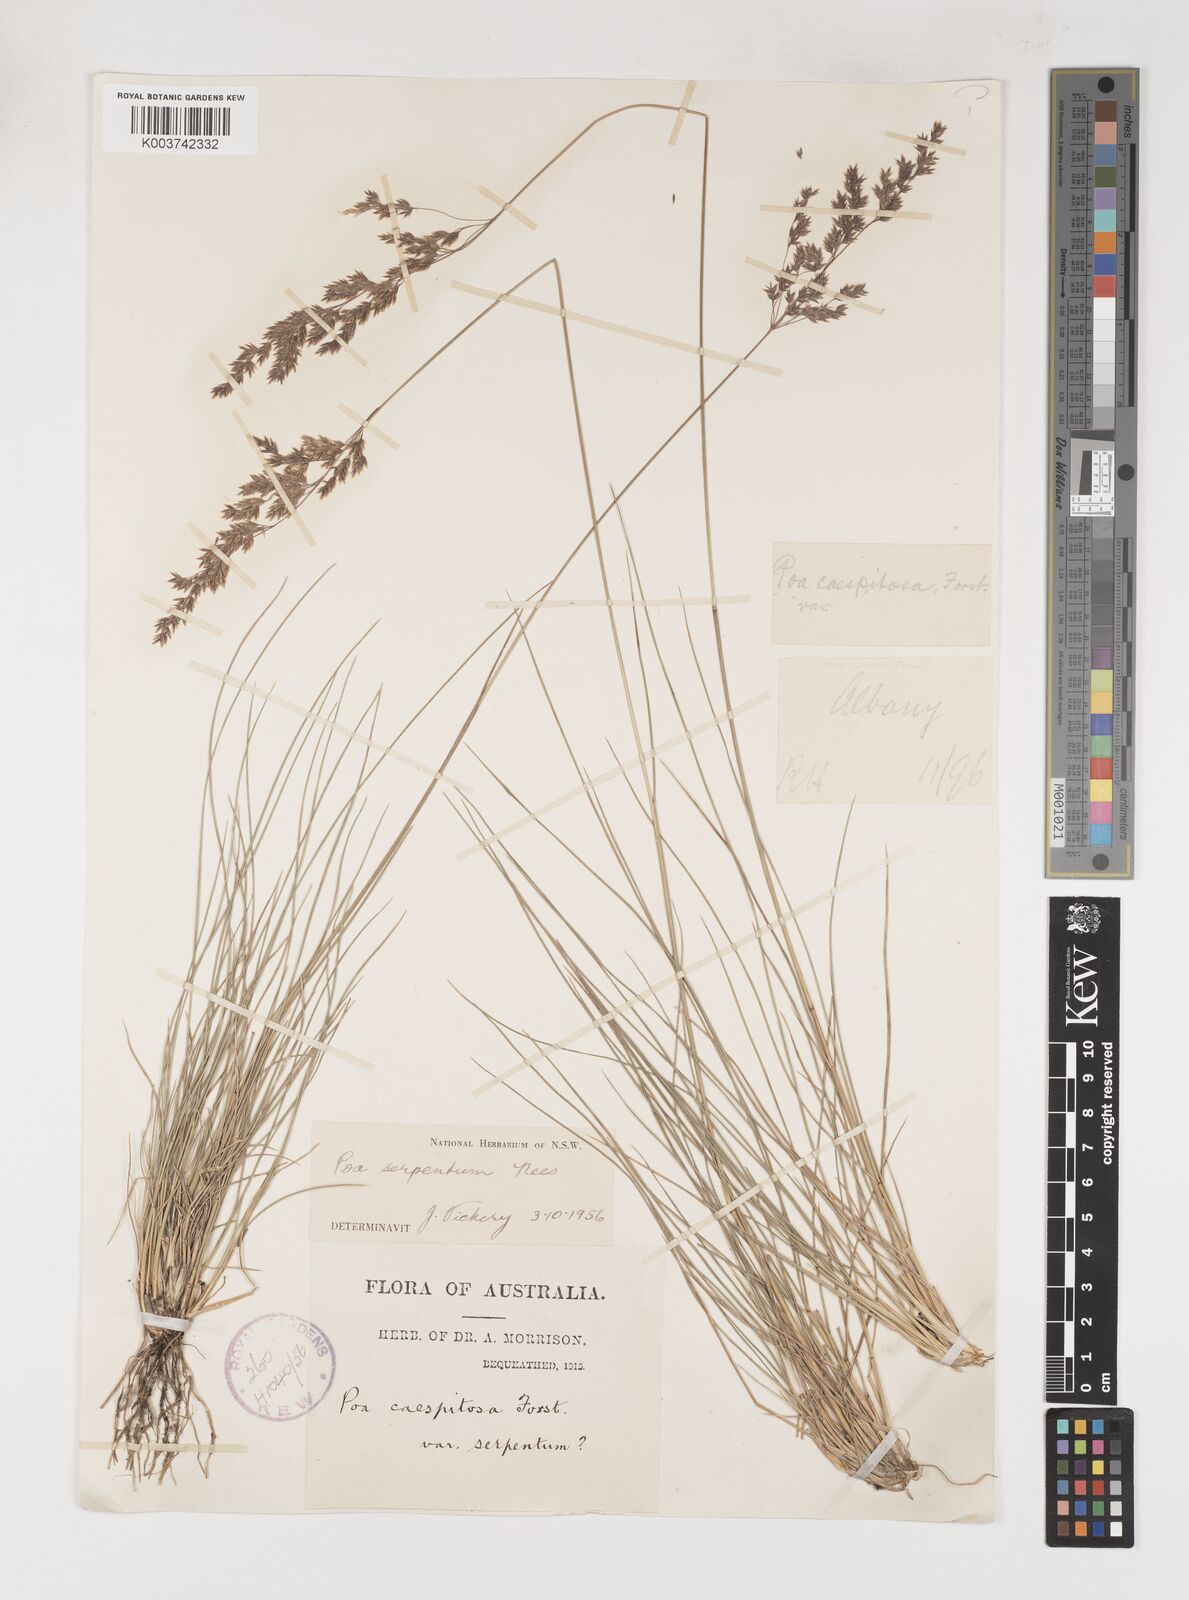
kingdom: Plantae
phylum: Tracheophyta
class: Liliopsida
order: Poales
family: Poaceae
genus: Poa
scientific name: Poa porphyroclados
